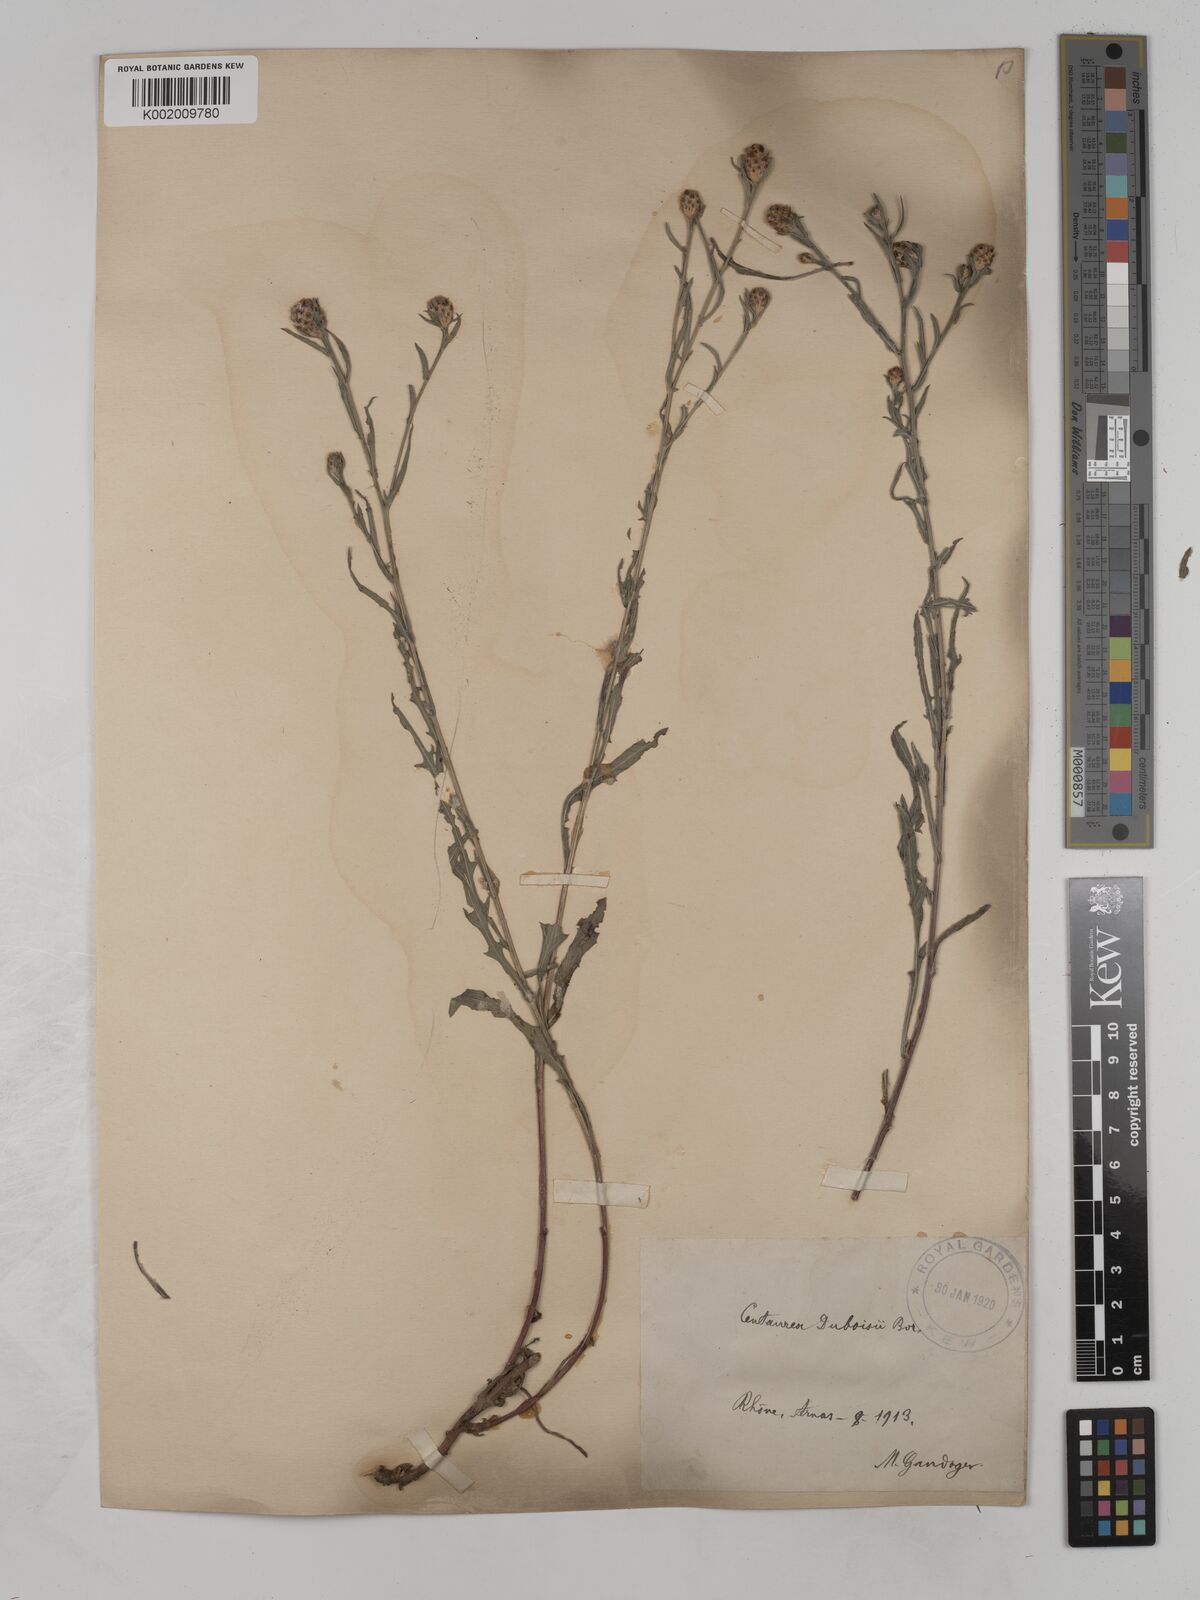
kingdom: Plantae
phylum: Tracheophyta
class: Magnoliopsida
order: Asterales
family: Asteraceae
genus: Centaurea
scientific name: Centaurea timbalii
